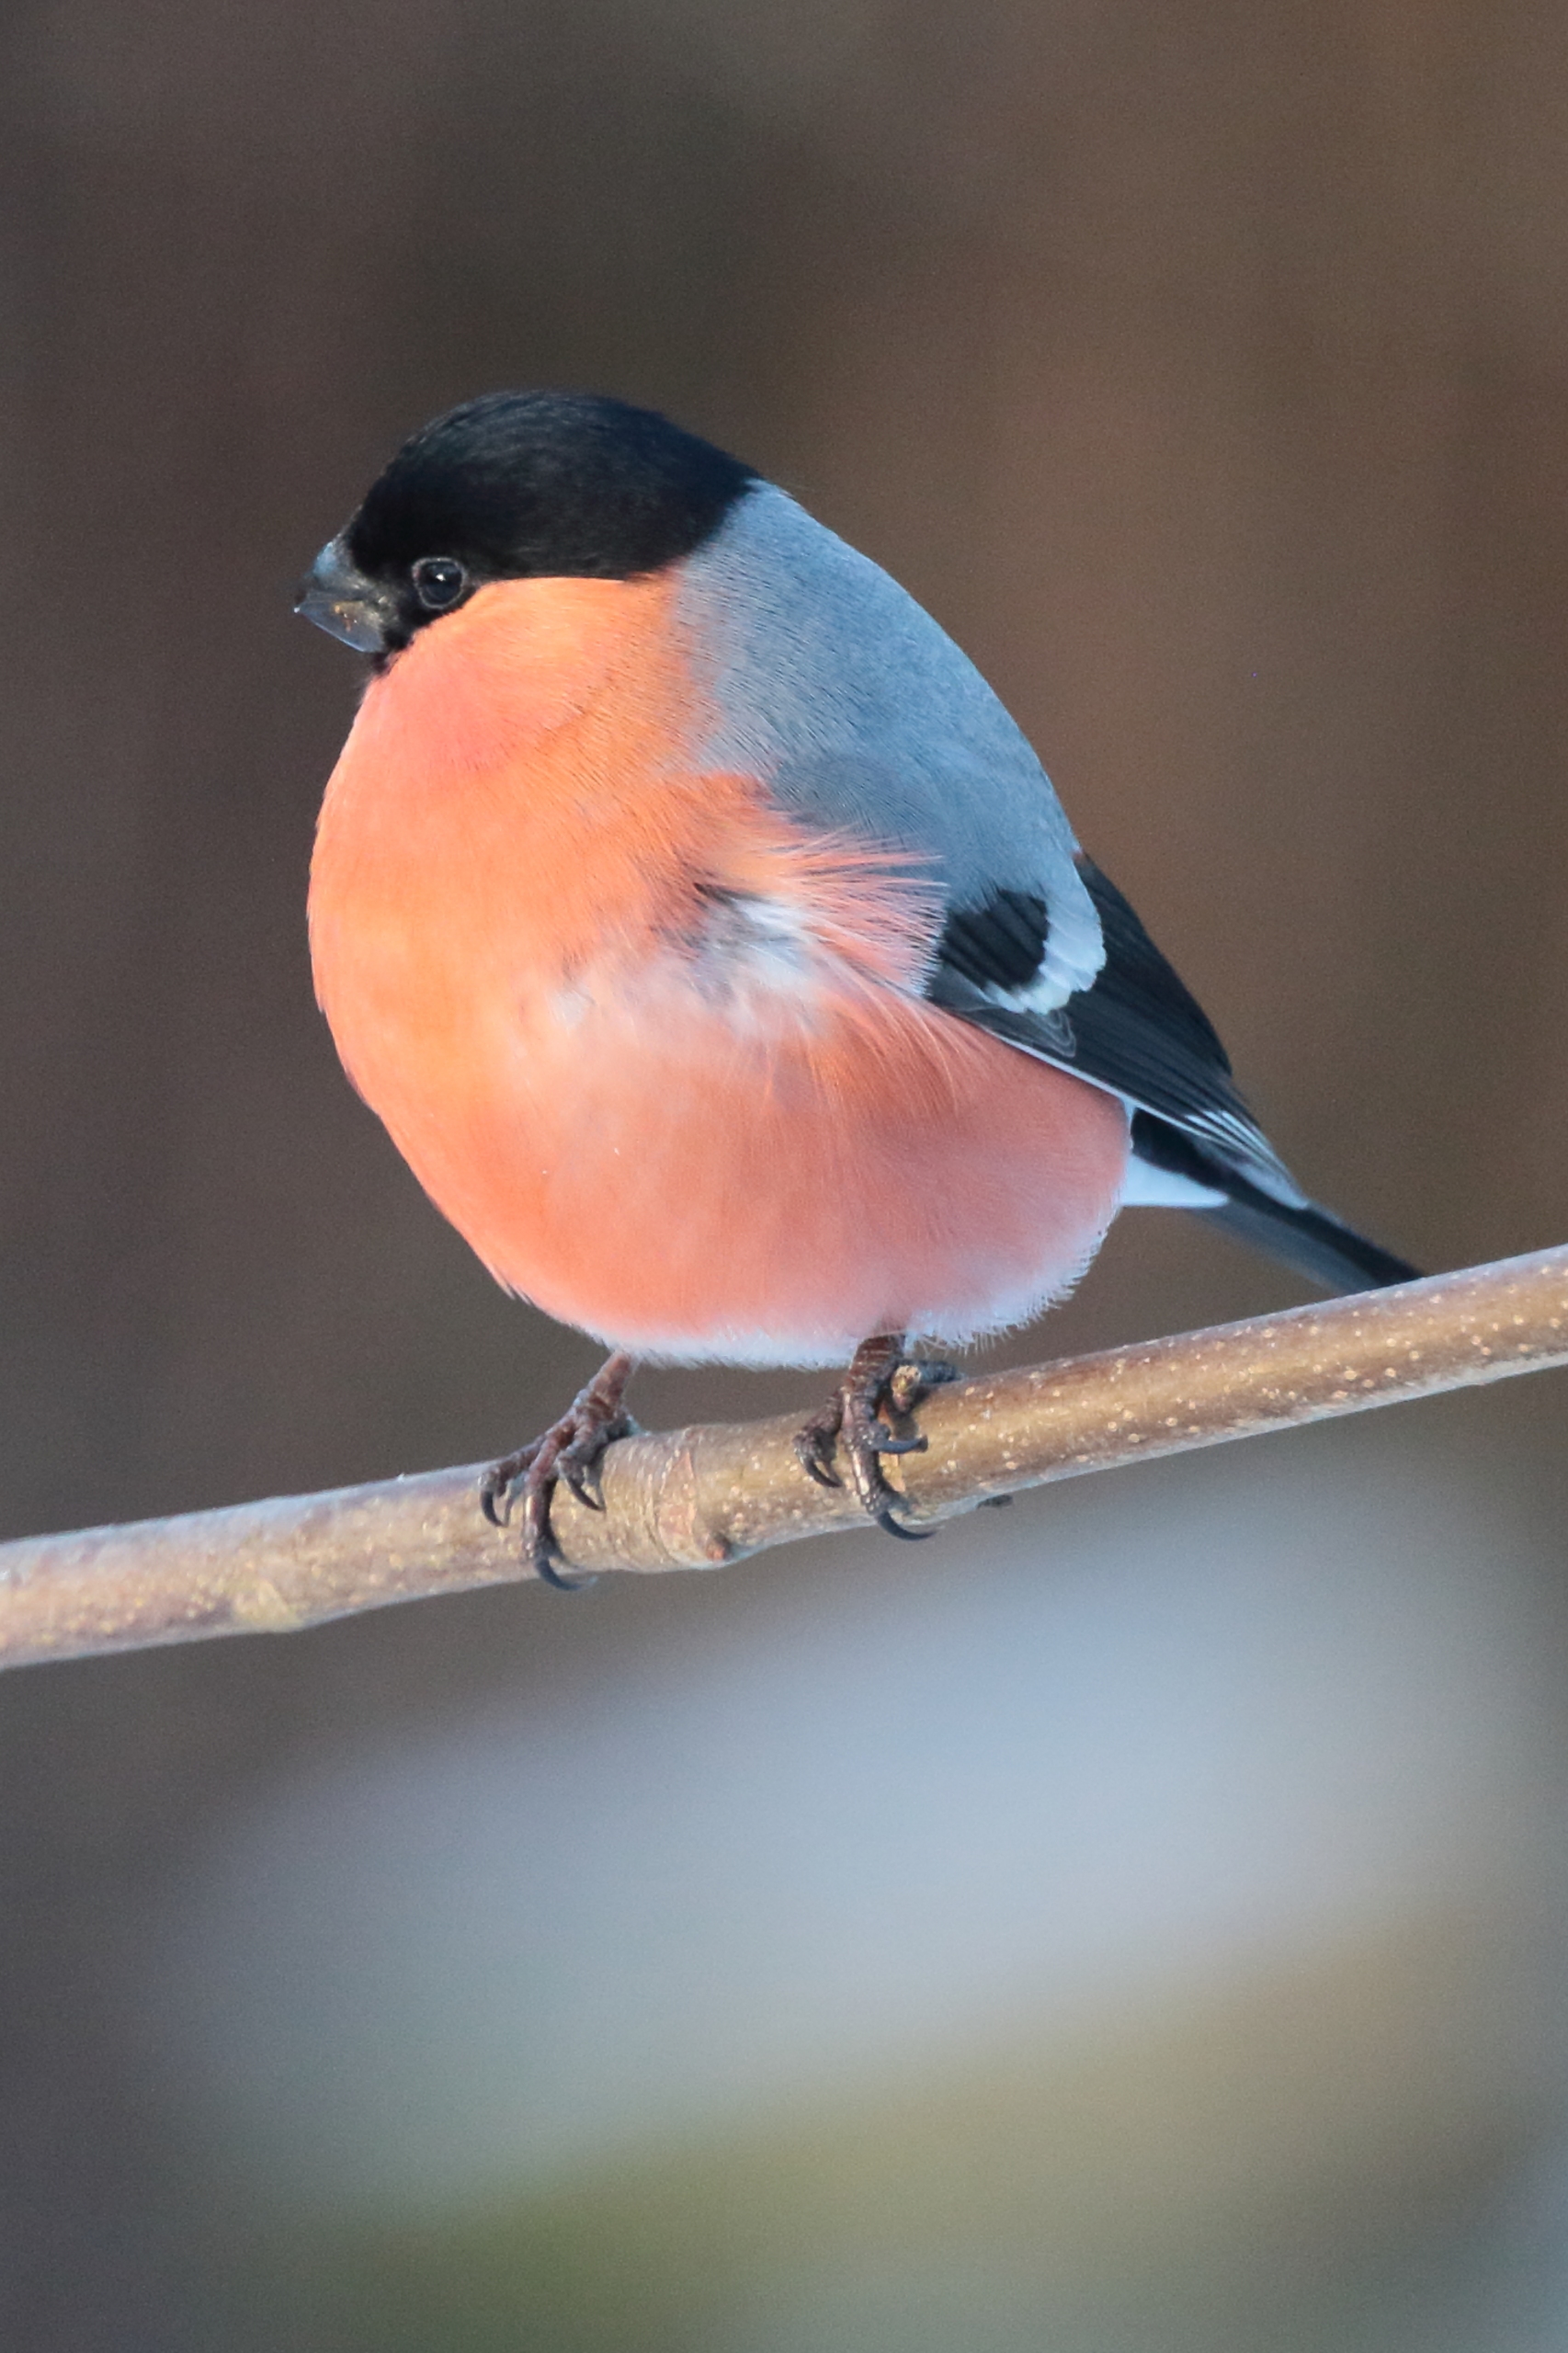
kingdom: Animalia
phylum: Chordata
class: Aves
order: Passeriformes
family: Fringillidae
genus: Pyrrhula
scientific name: Pyrrhula pyrrhula
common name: Dompap
